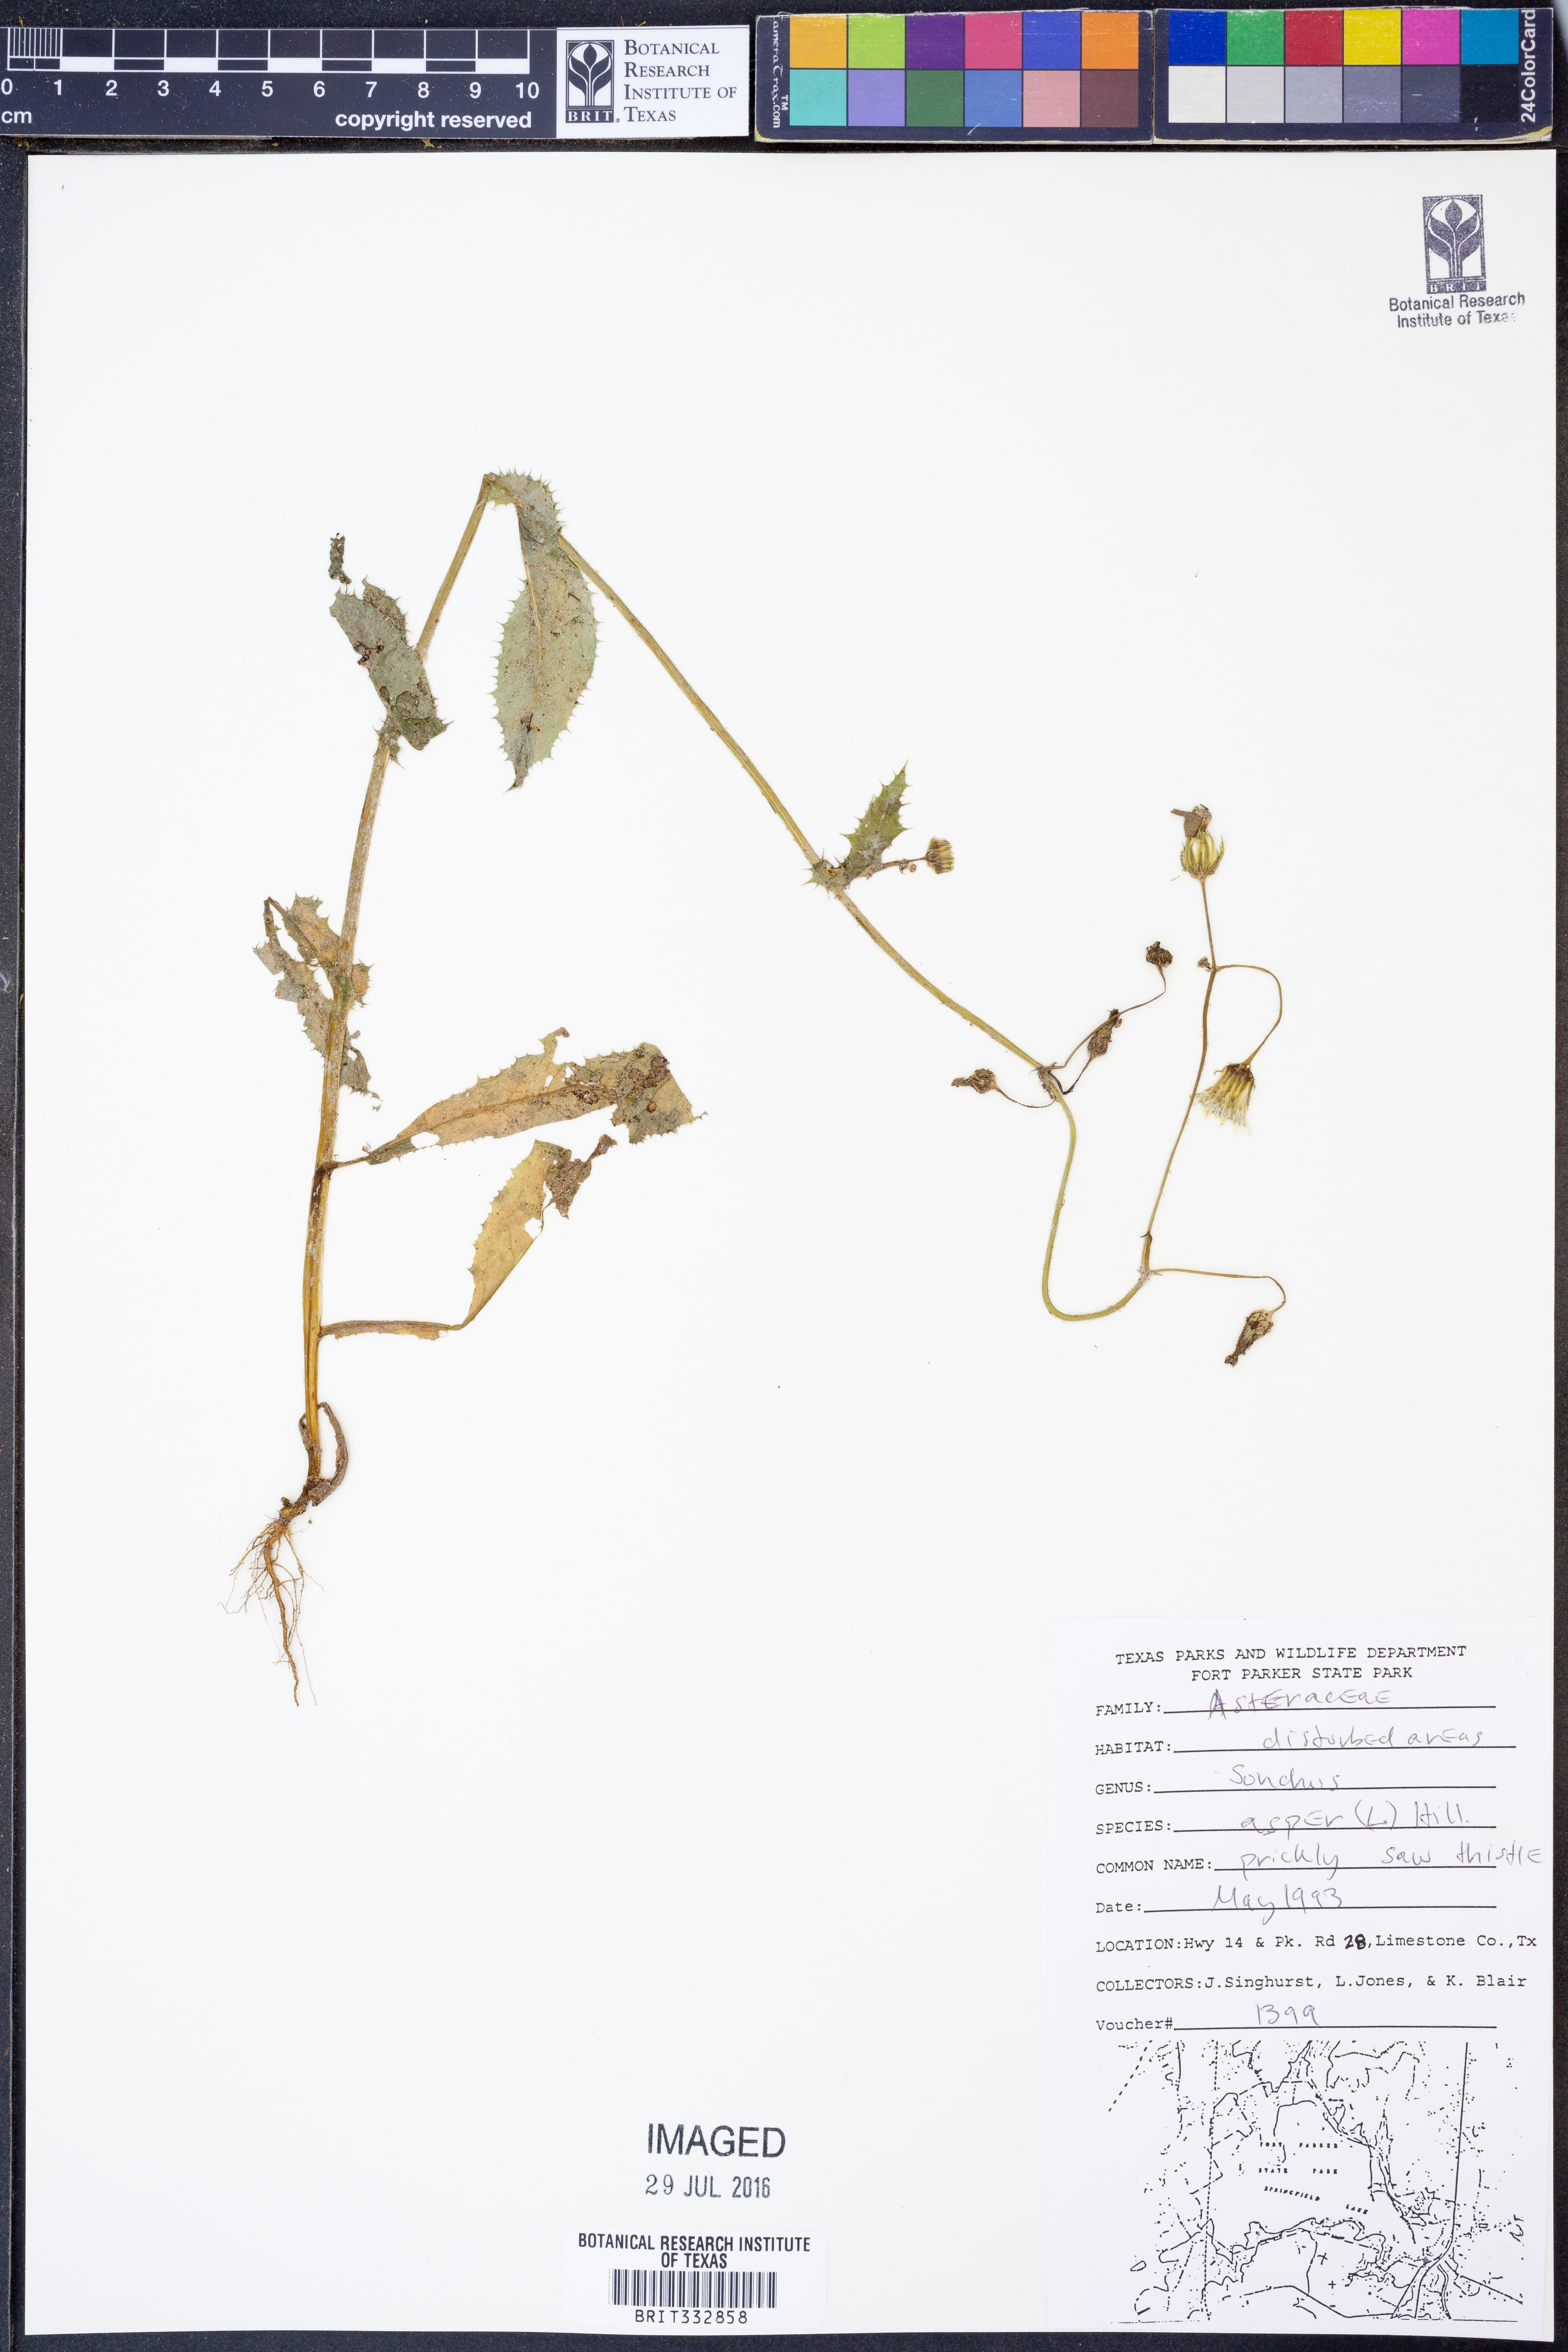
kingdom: Plantae
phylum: Tracheophyta
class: Magnoliopsida
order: Asterales
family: Asteraceae
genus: Sonchus
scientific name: Sonchus asper
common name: Prickly sow-thistle
